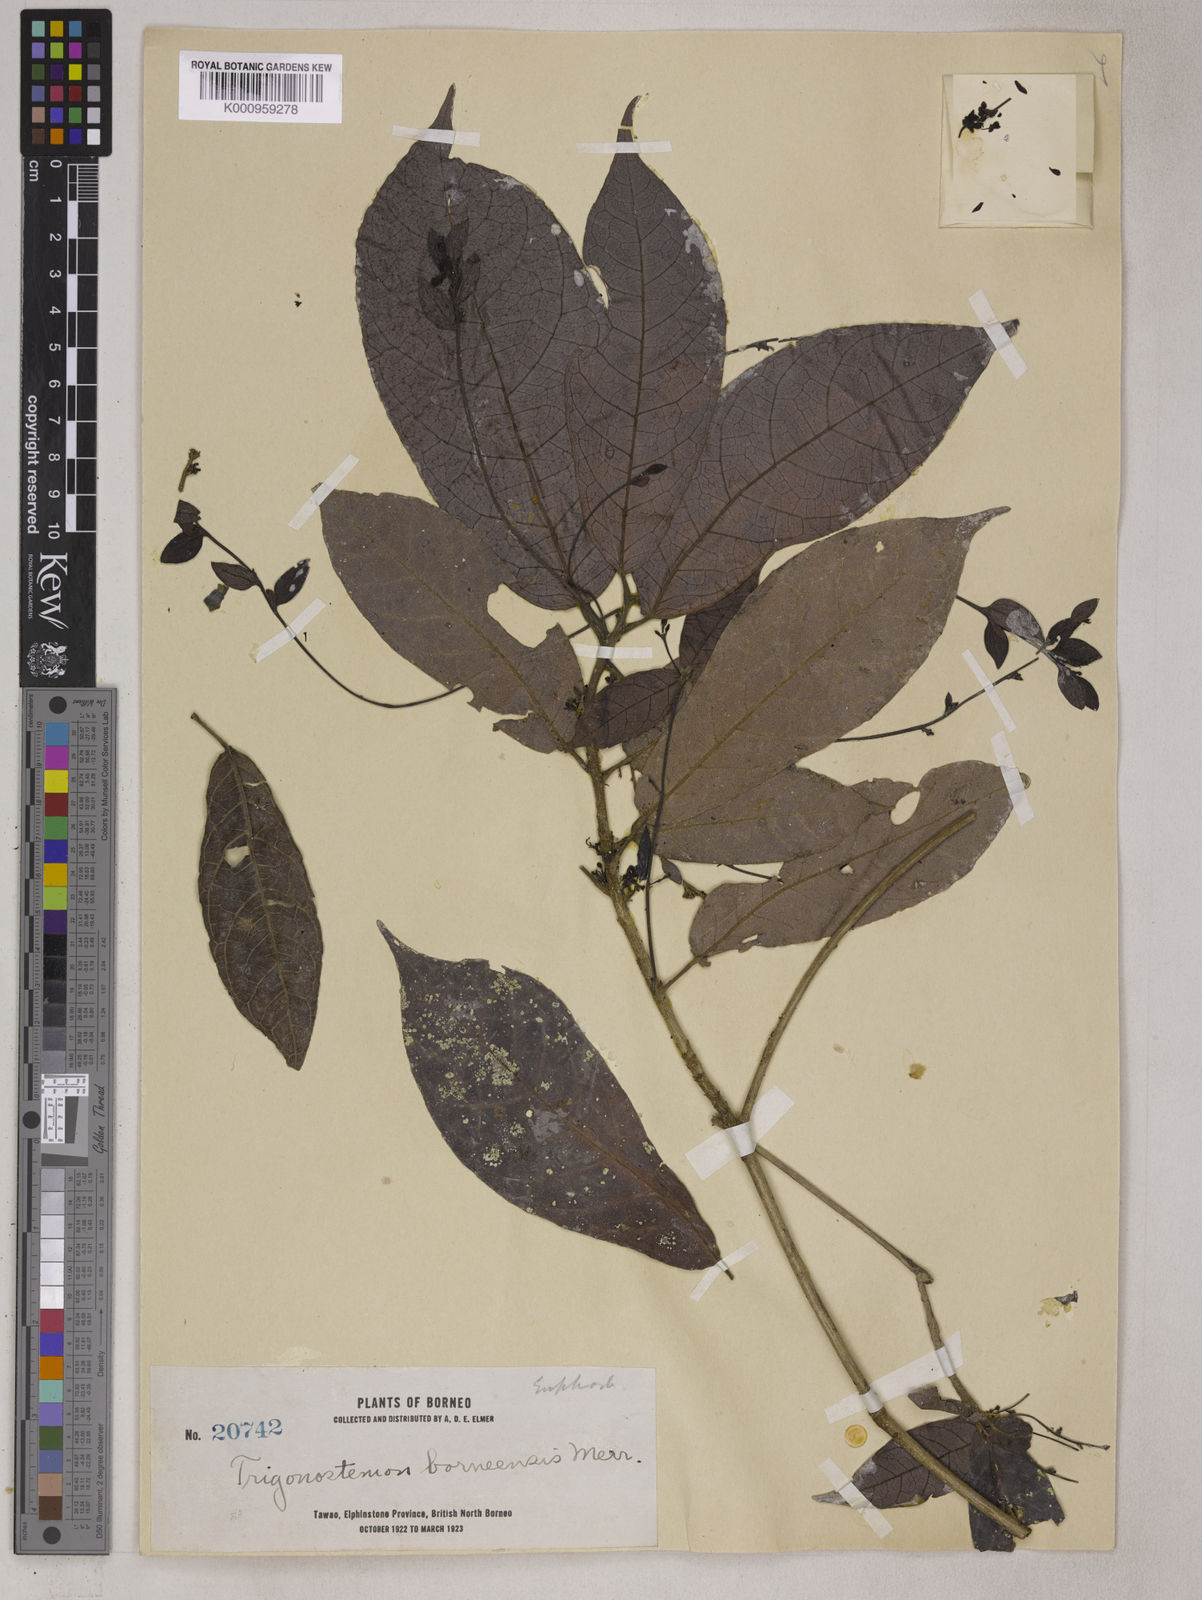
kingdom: Plantae
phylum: Tracheophyta
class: Magnoliopsida
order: Malpighiales
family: Euphorbiaceae
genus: Trigonostemon
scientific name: Trigonostemon polyanthus
